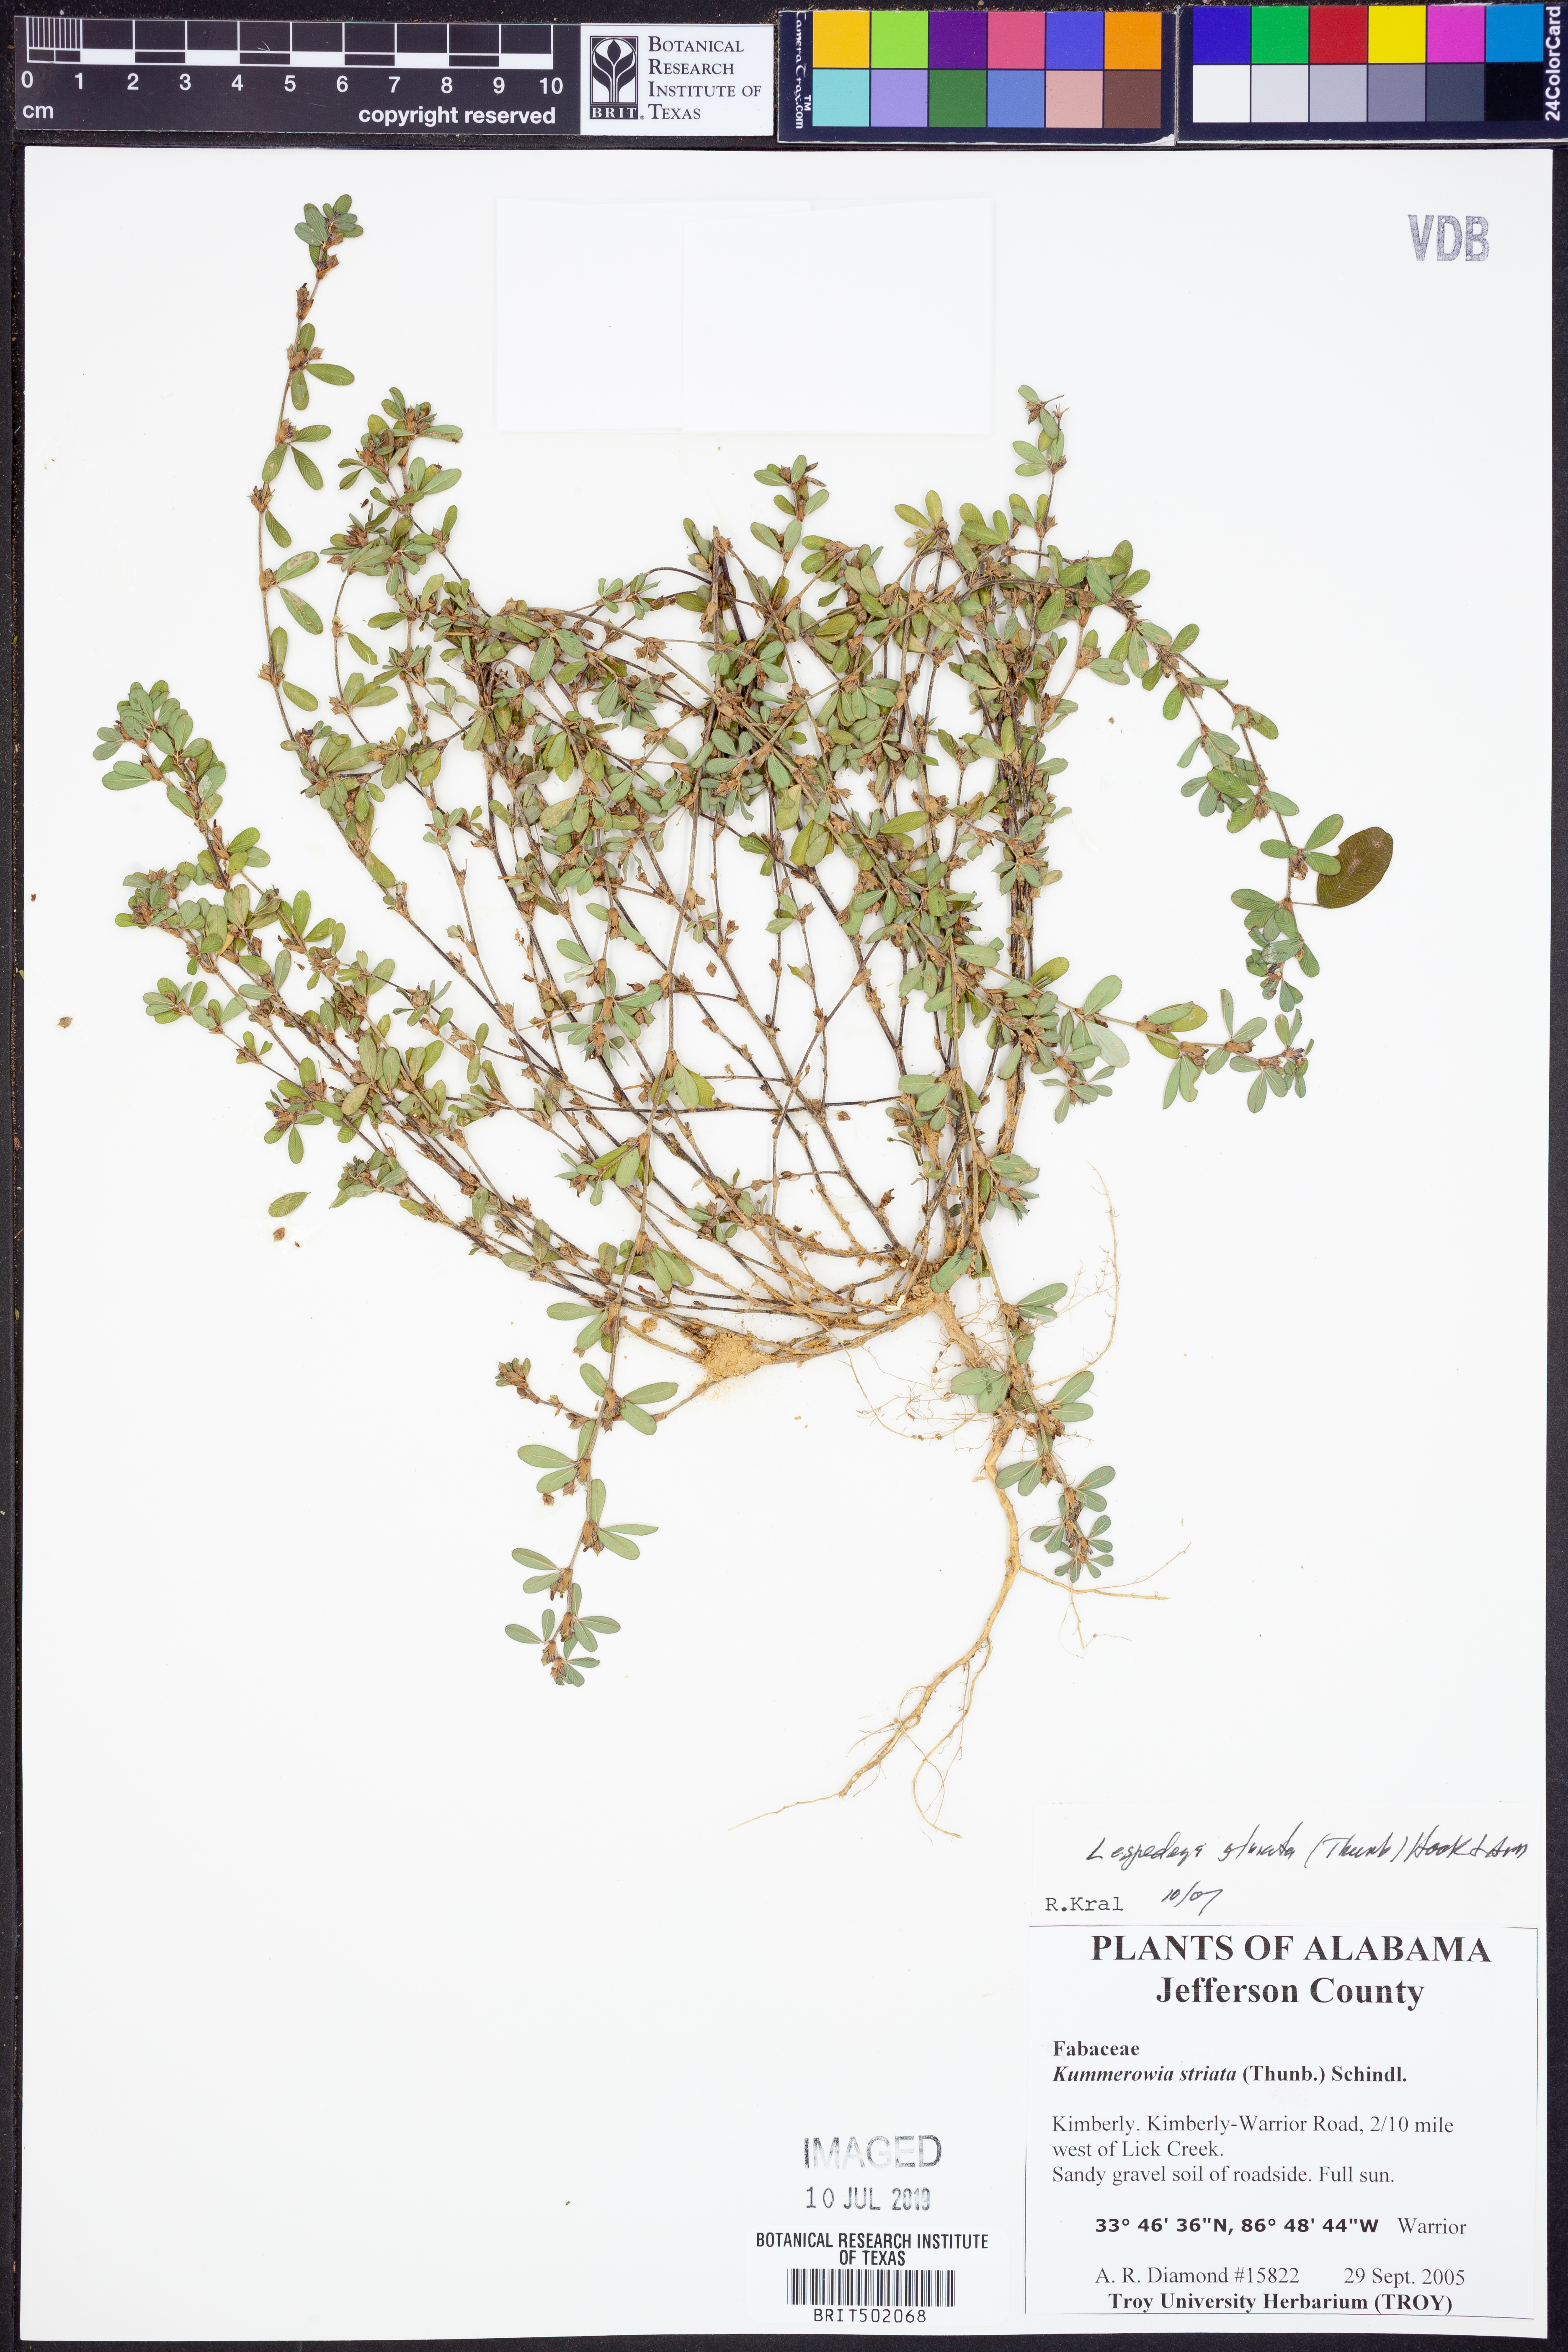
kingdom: Plantae
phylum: Tracheophyta
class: Magnoliopsida
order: Fabales
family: Fabaceae
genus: Kummerowia
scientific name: Kummerowia striata
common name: Japanese clover
